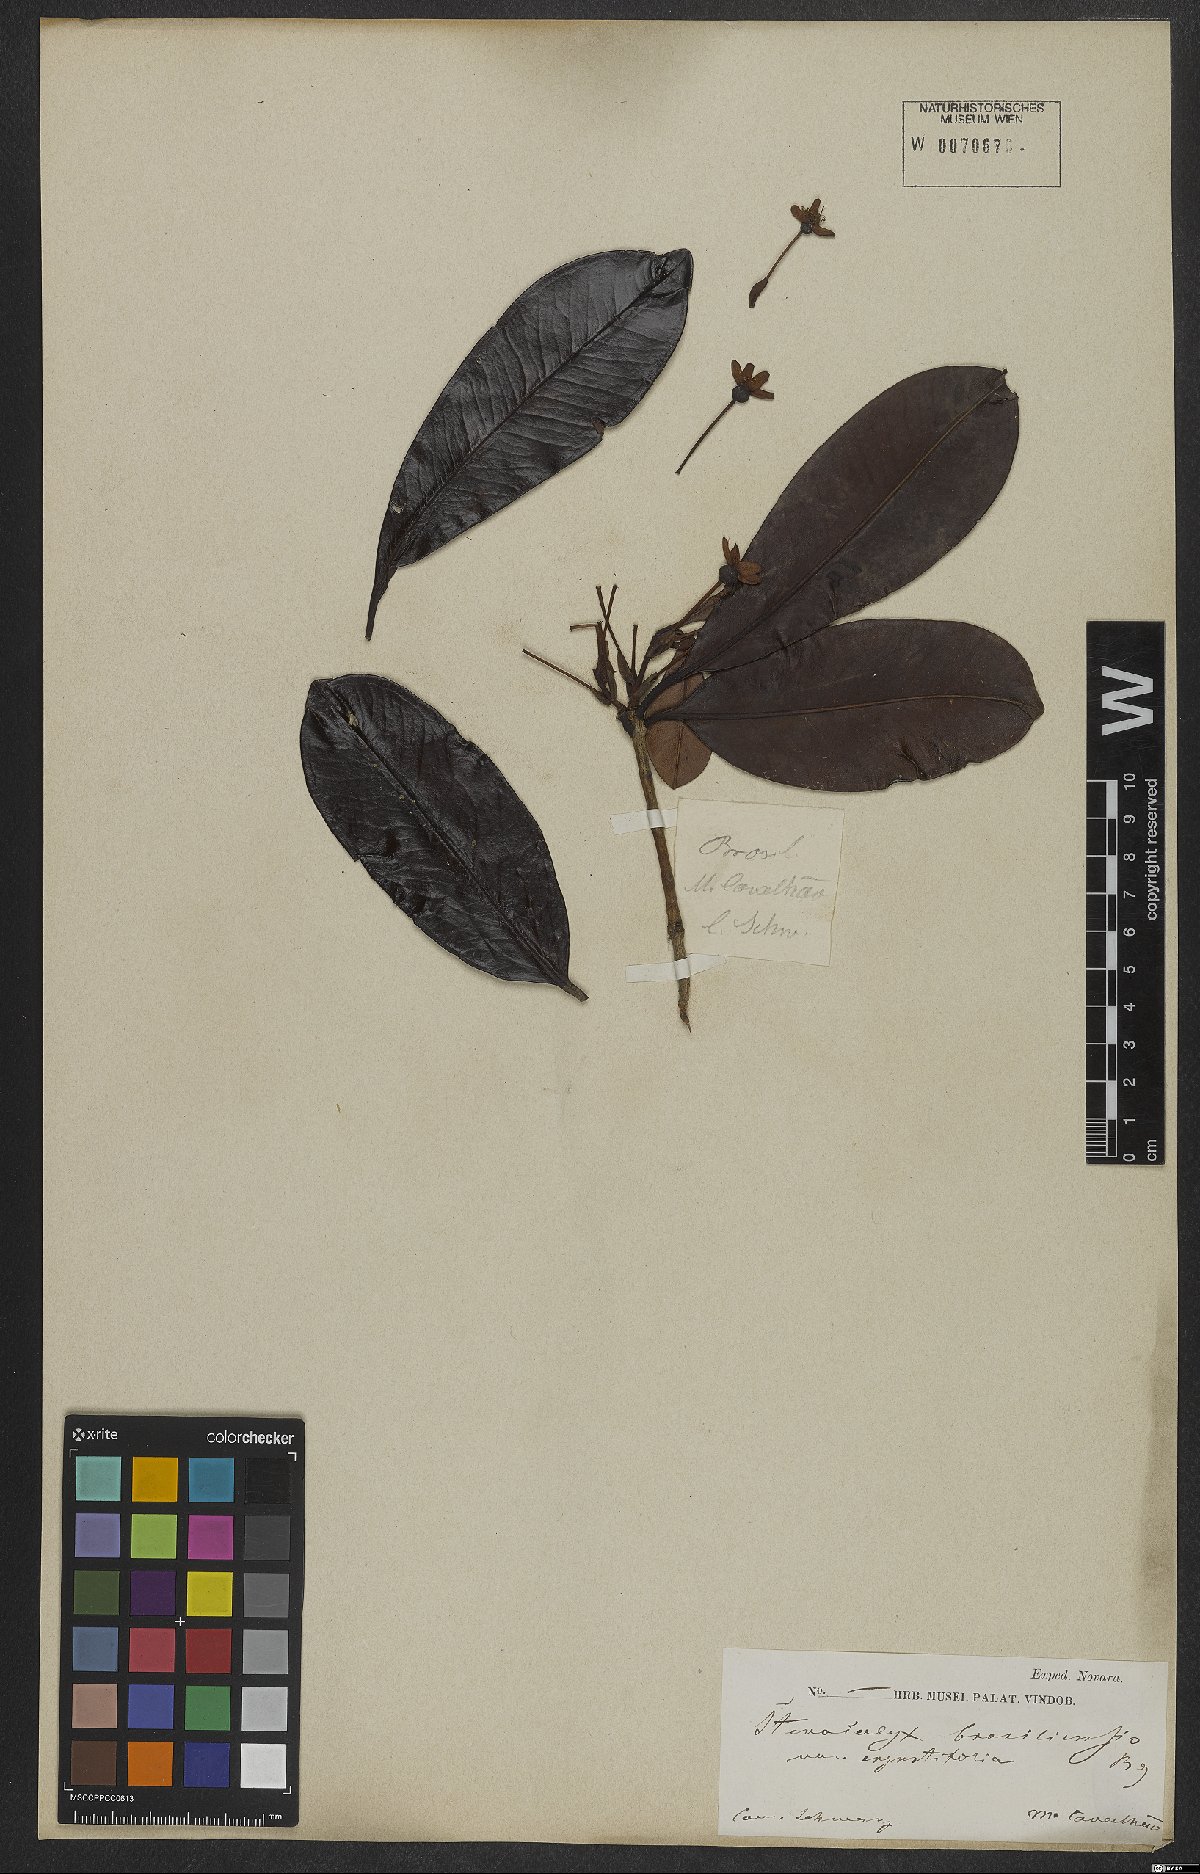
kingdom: Plantae
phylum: Tracheophyta
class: Magnoliopsida
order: Myrtales
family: Myrtaceae
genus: Eugenia
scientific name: Eugenia brasiliensis
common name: Grumichama
